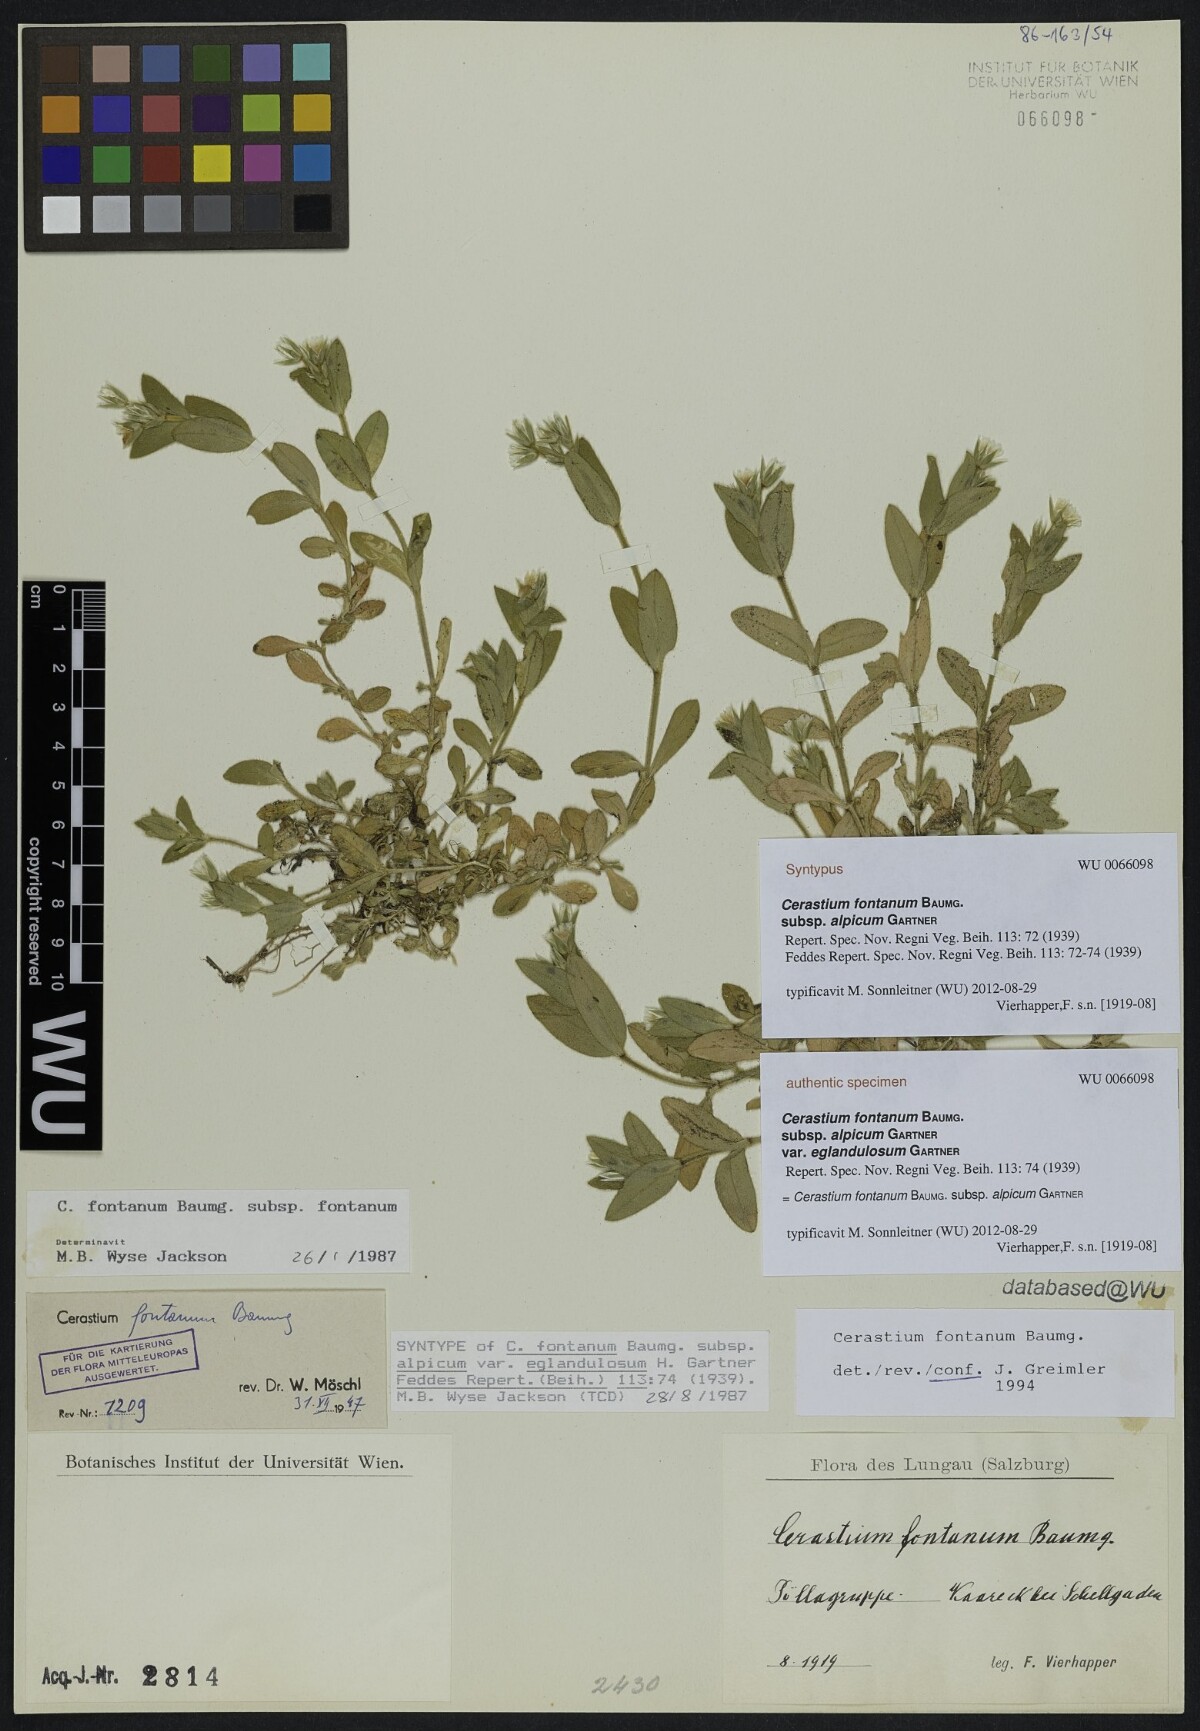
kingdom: Plantae
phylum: Tracheophyta
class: Magnoliopsida
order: Caryophyllales
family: Caryophyllaceae
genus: Cerastium
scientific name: Cerastium fontanum
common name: Common mouse-ear
